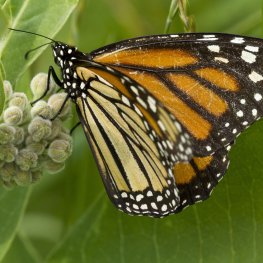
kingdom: Animalia
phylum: Arthropoda
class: Insecta
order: Lepidoptera
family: Nymphalidae
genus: Danaus
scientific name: Danaus plexippus
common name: Monarch
